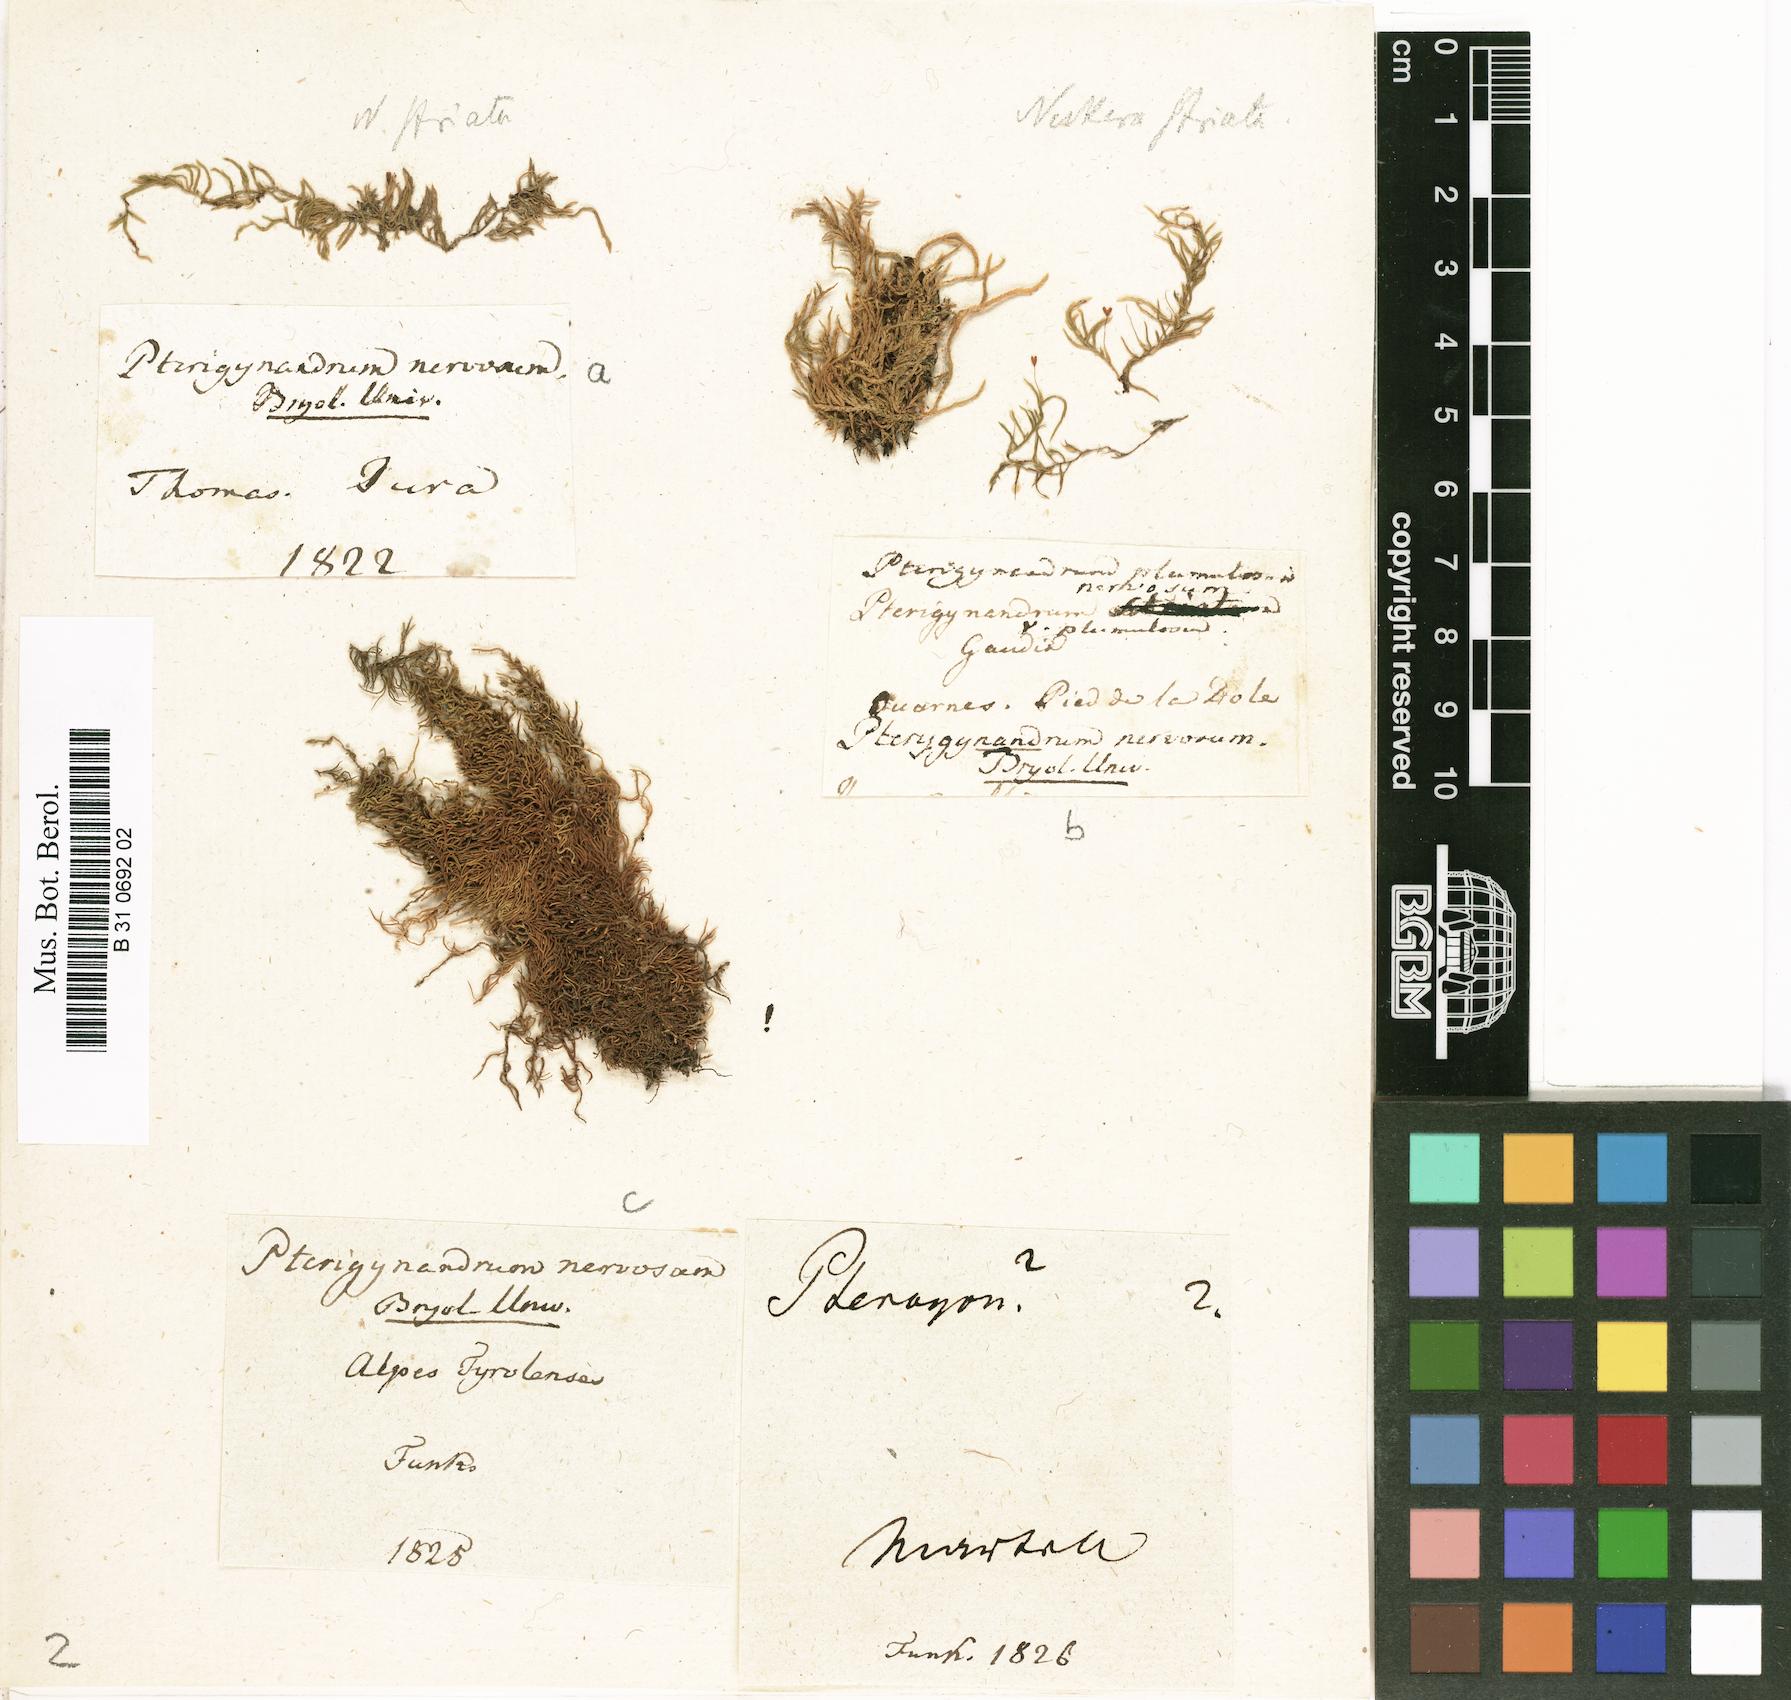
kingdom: Plantae
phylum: Bryophyta
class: Bryopsida
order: Hypnales
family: Pseudoleskeellaceae
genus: Pseudoleskeella
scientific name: Pseudoleskeella nervosa
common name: Nerved leske's moss
